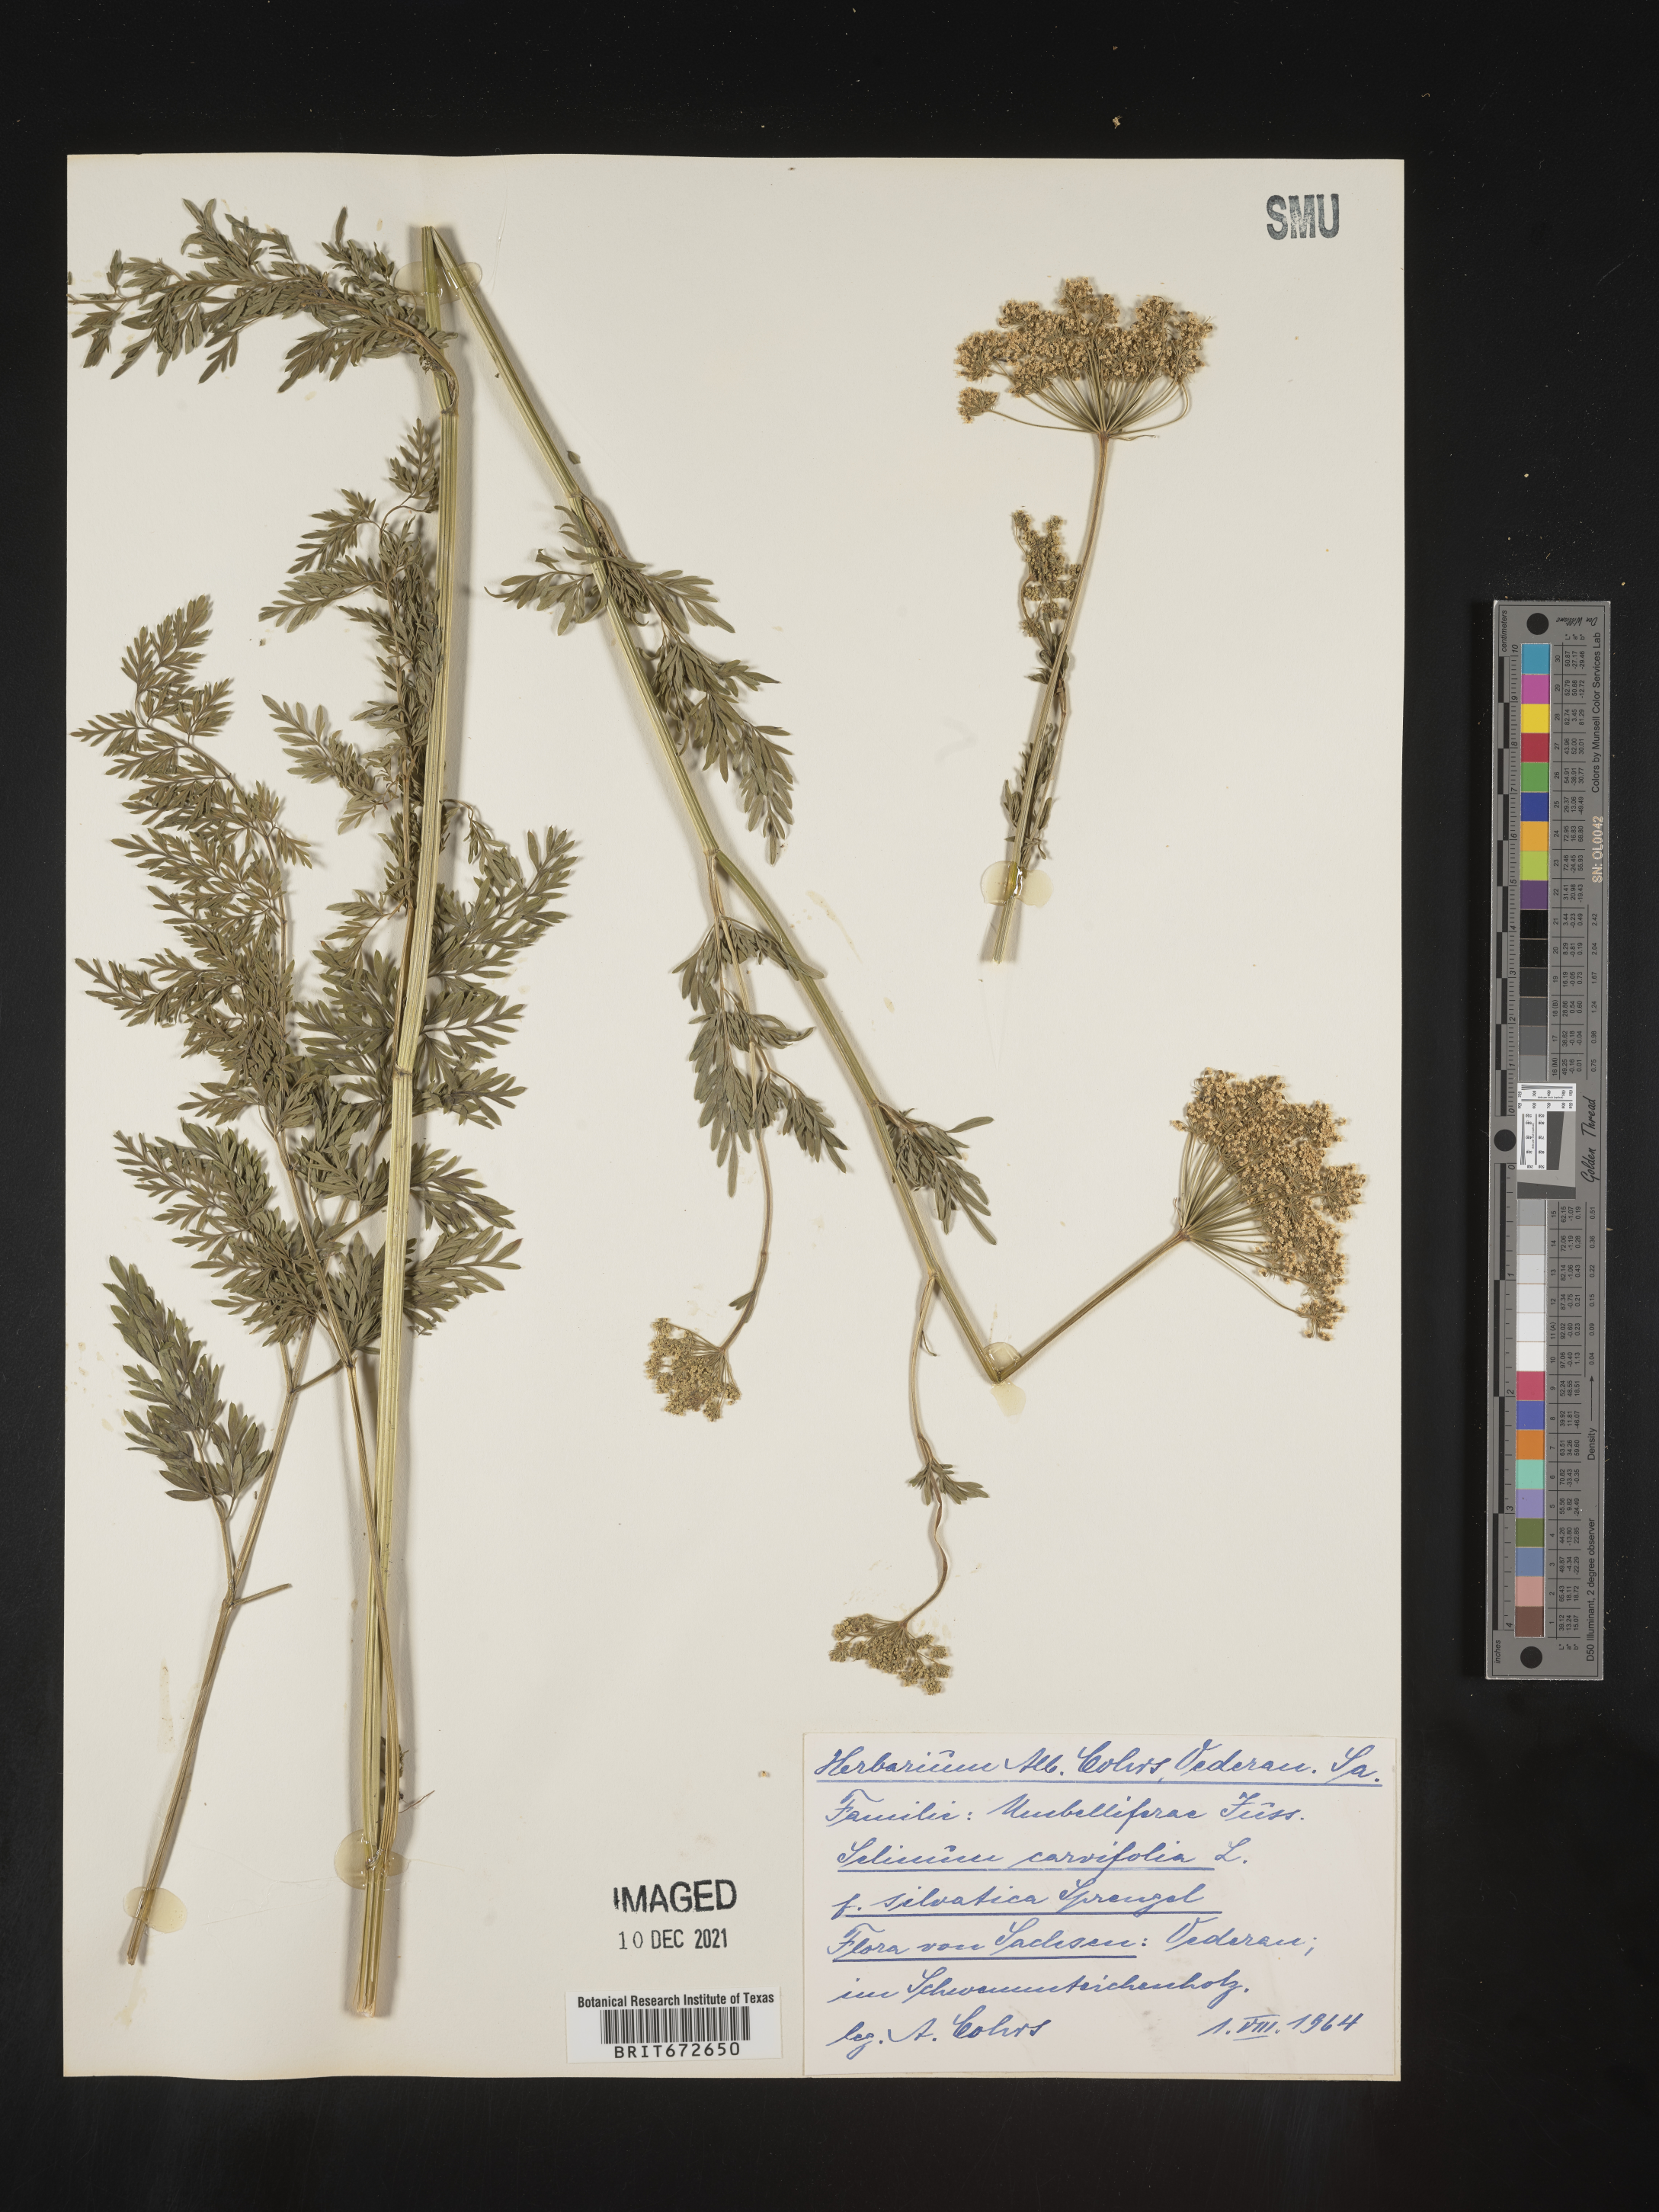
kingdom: Plantae
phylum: Tracheophyta
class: Magnoliopsida
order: Apiales
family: Apiaceae
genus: Selinum
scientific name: Selinum
